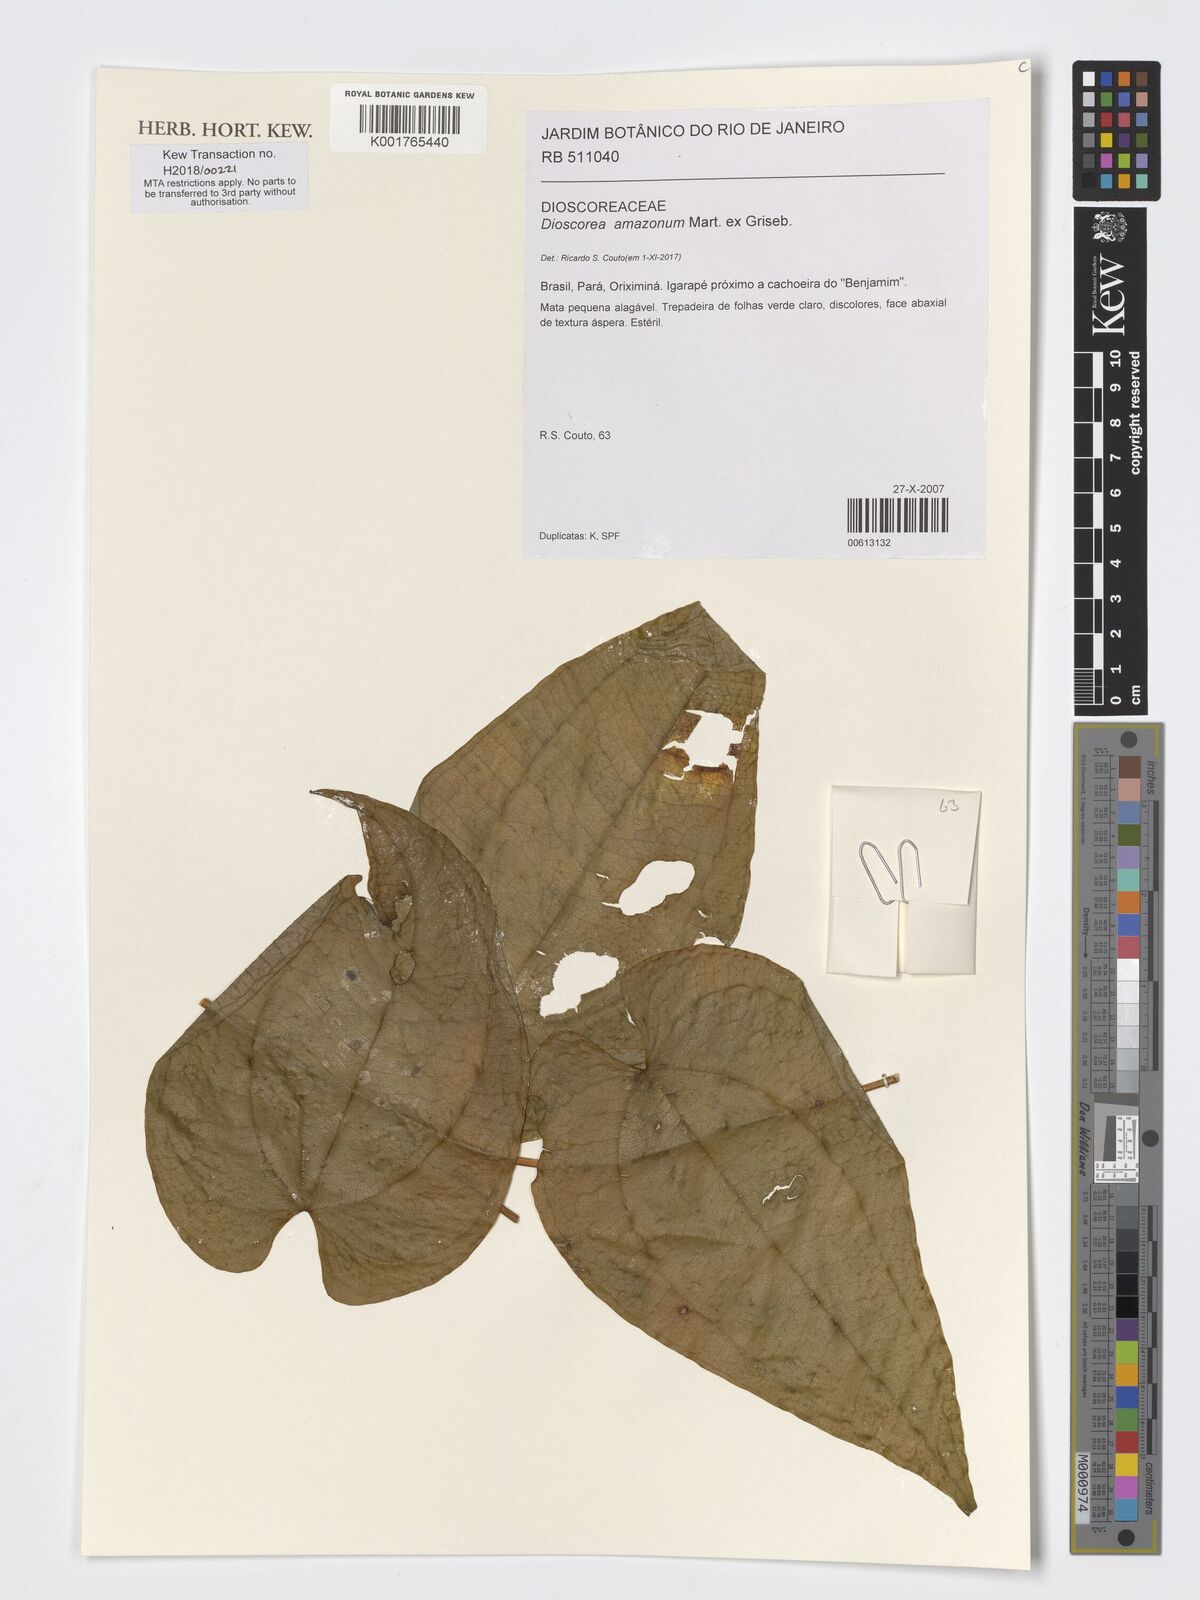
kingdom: Plantae
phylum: Tracheophyta
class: Liliopsida
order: Dioscoreales
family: Dioscoreaceae
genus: Dioscorea
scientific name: Dioscorea amazonum
